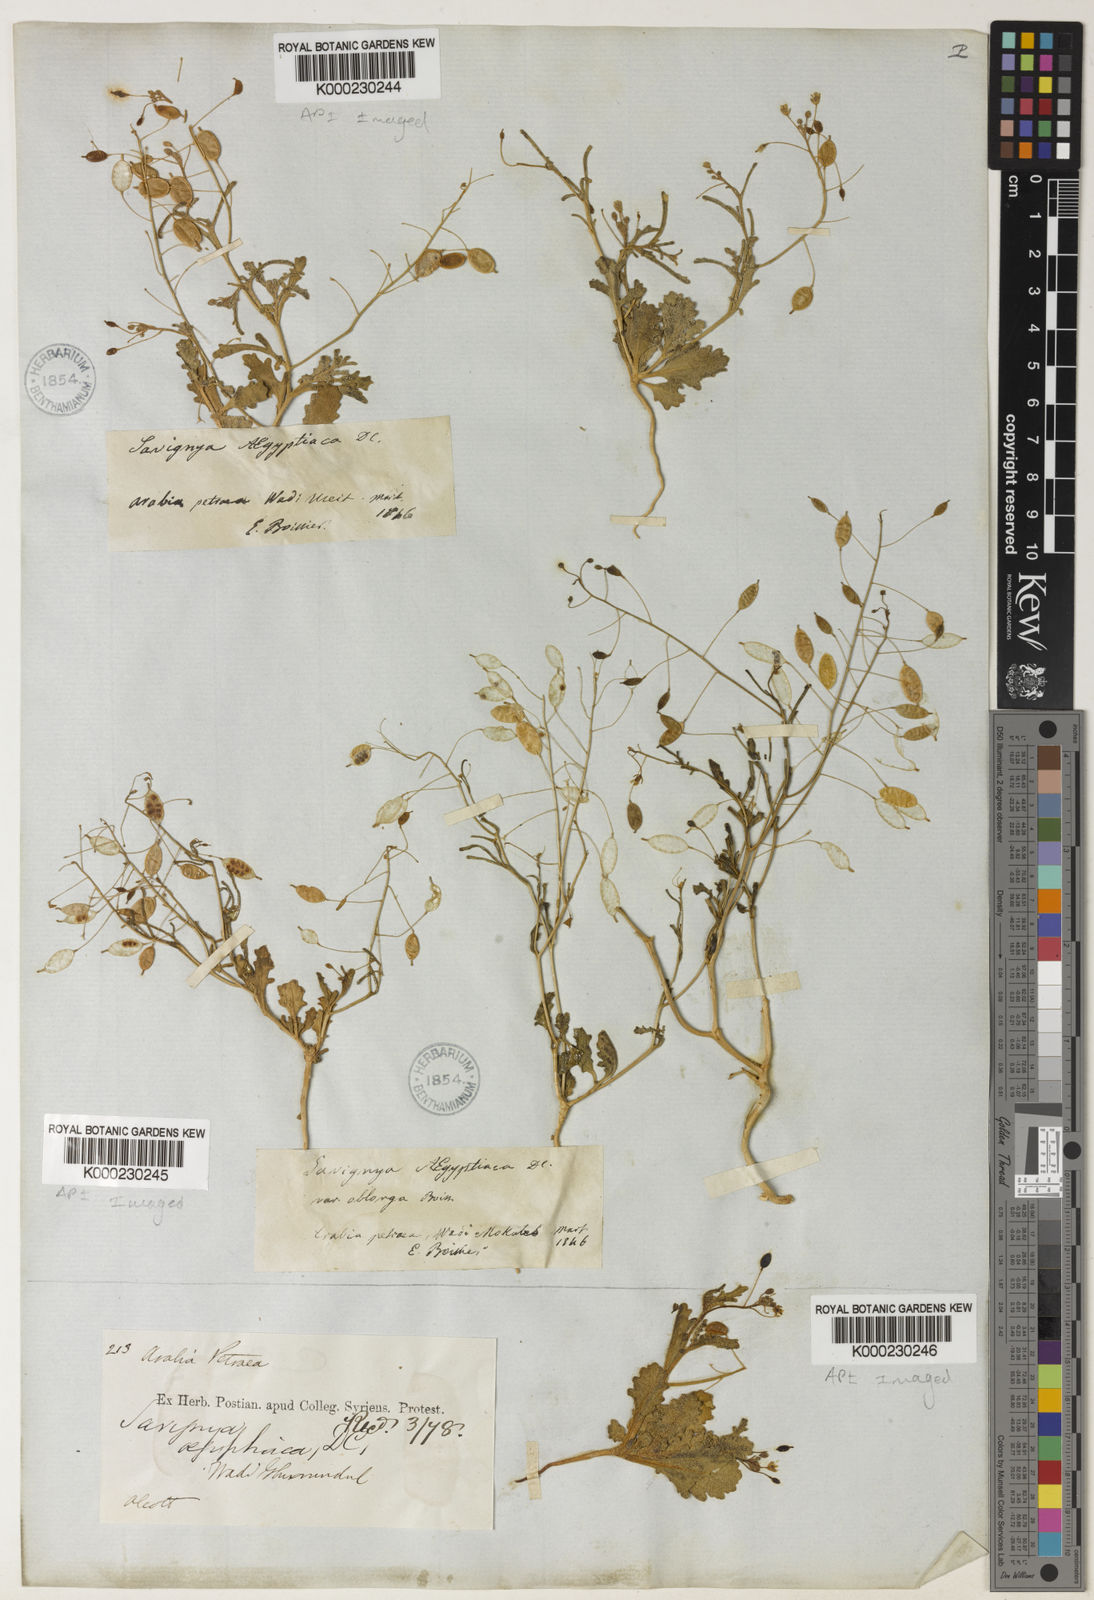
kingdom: Plantae
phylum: Tracheophyta
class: Magnoliopsida
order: Brassicales
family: Brassicaceae
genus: Savignya
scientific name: Savignya parviflora
